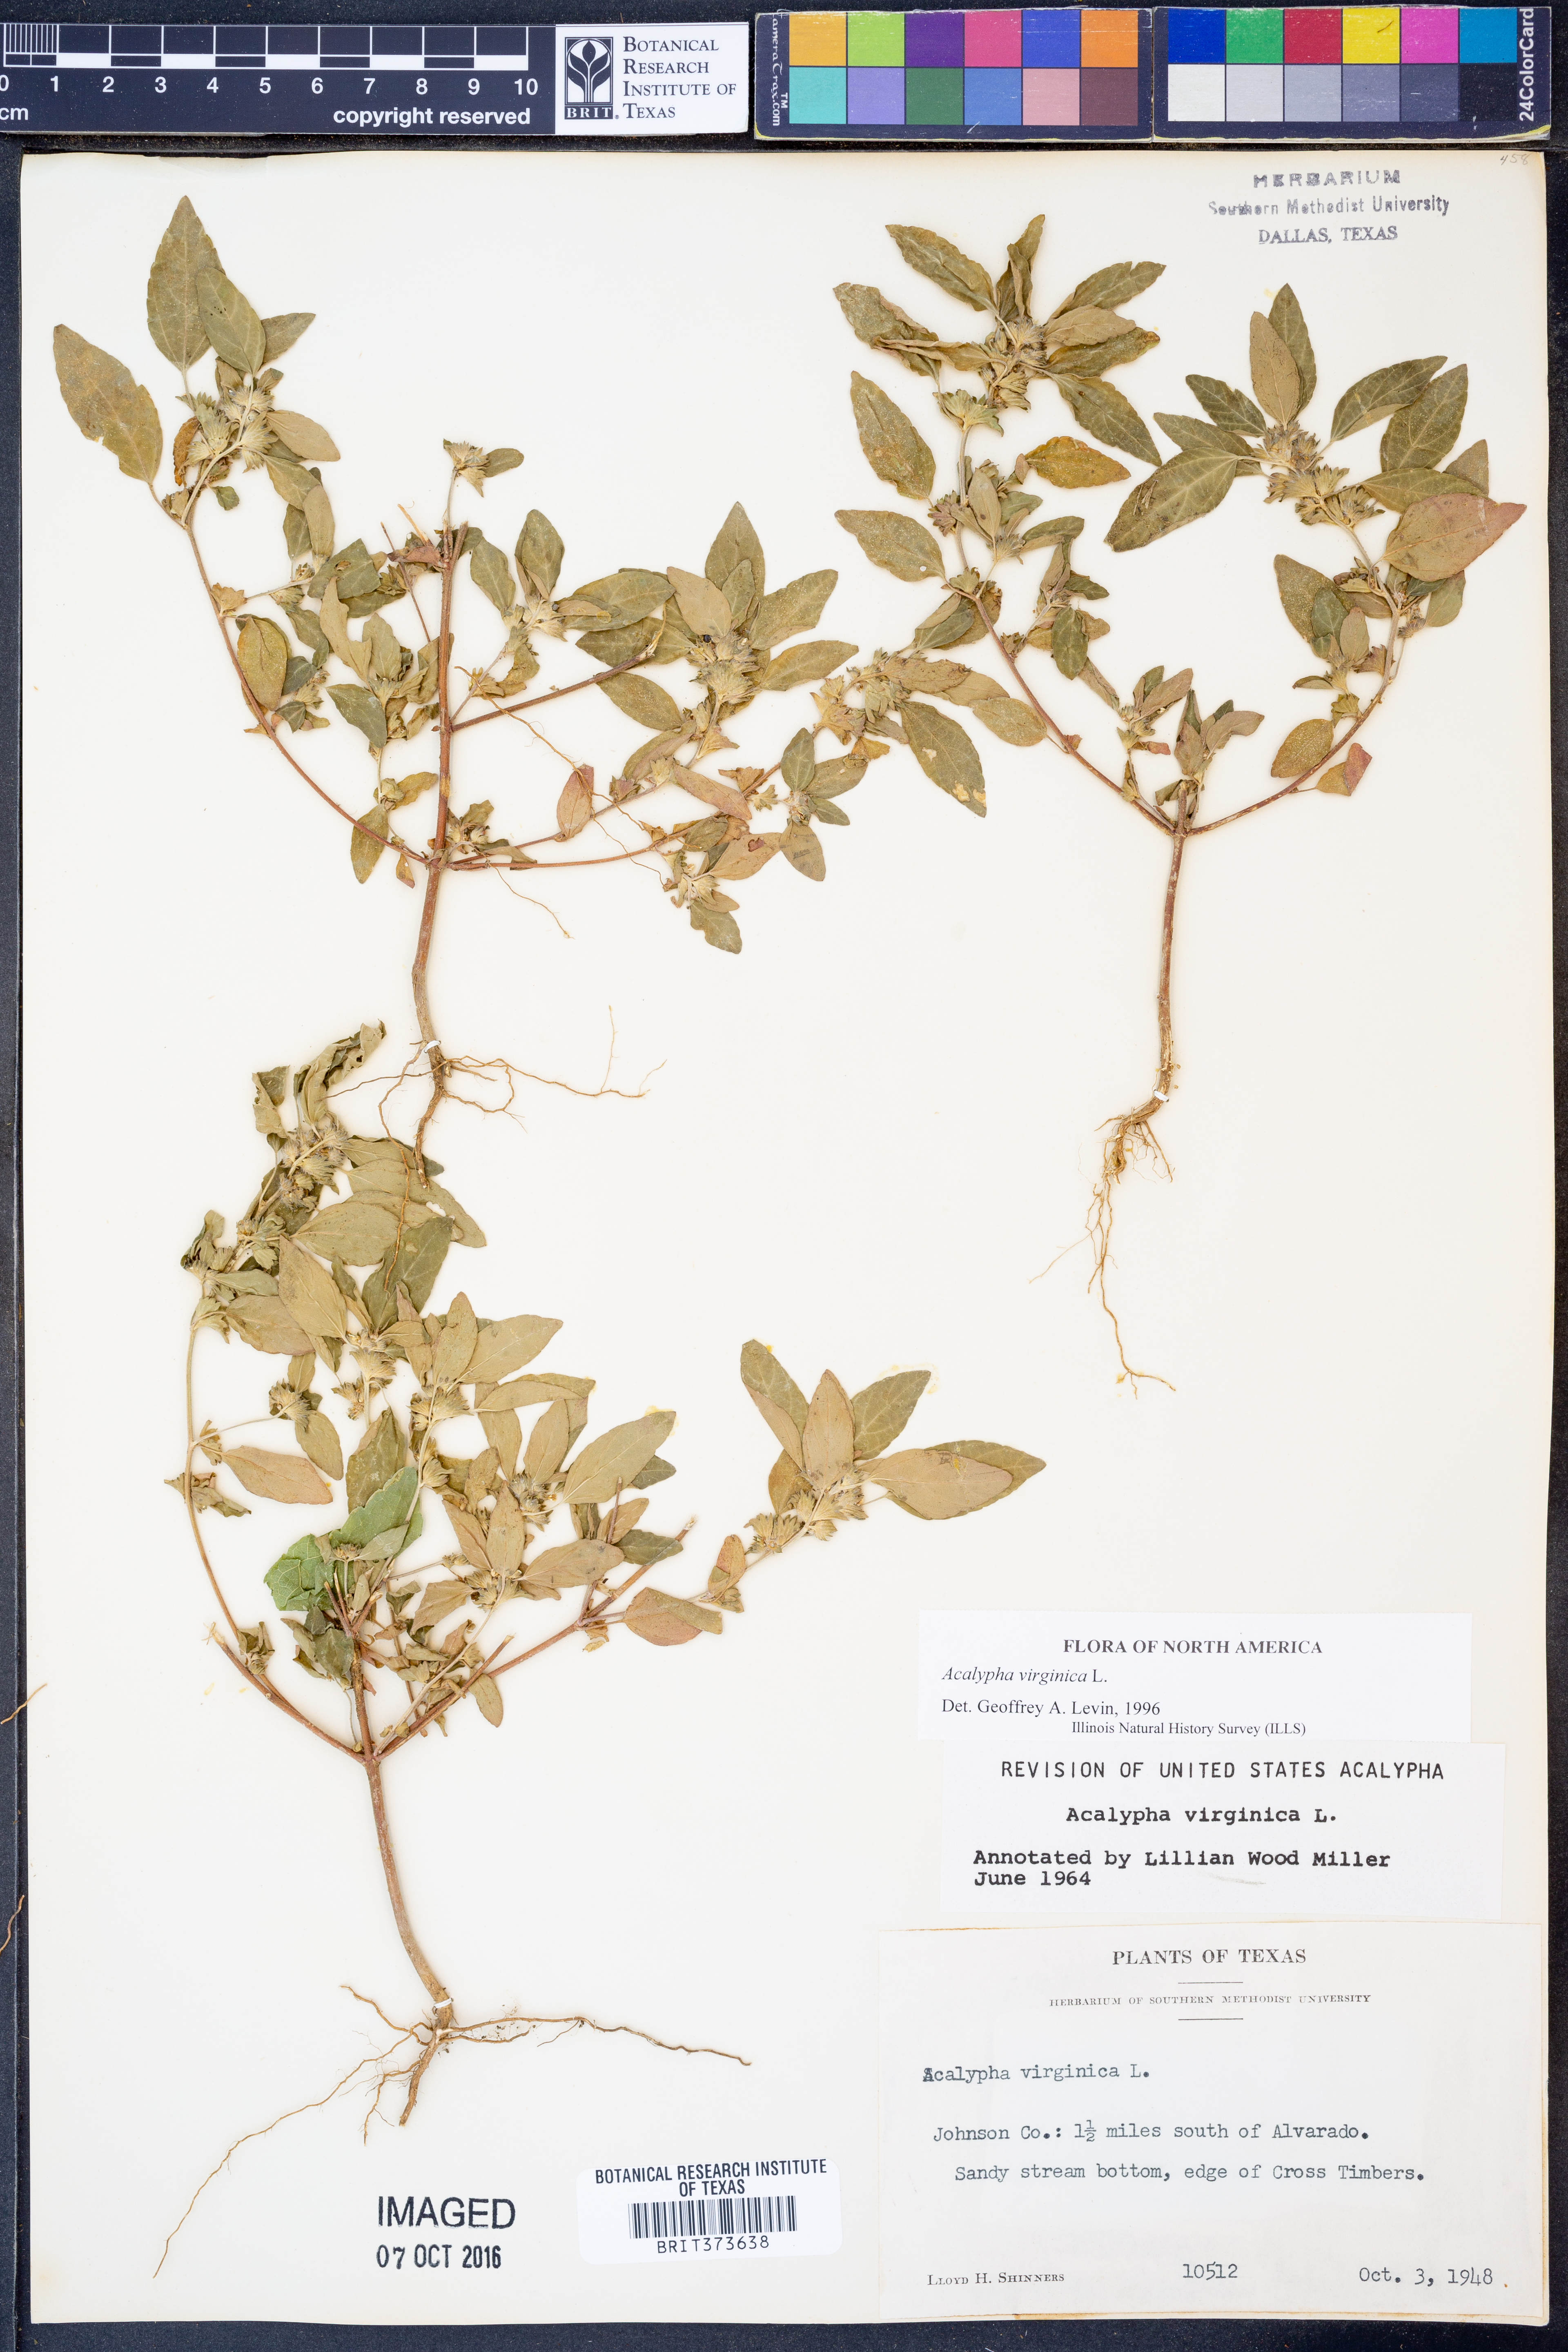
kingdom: Plantae
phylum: Tracheophyta
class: Magnoliopsida
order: Malpighiales
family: Euphorbiaceae
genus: Acalypha
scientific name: Acalypha virginica
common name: Virginia copperleaf
